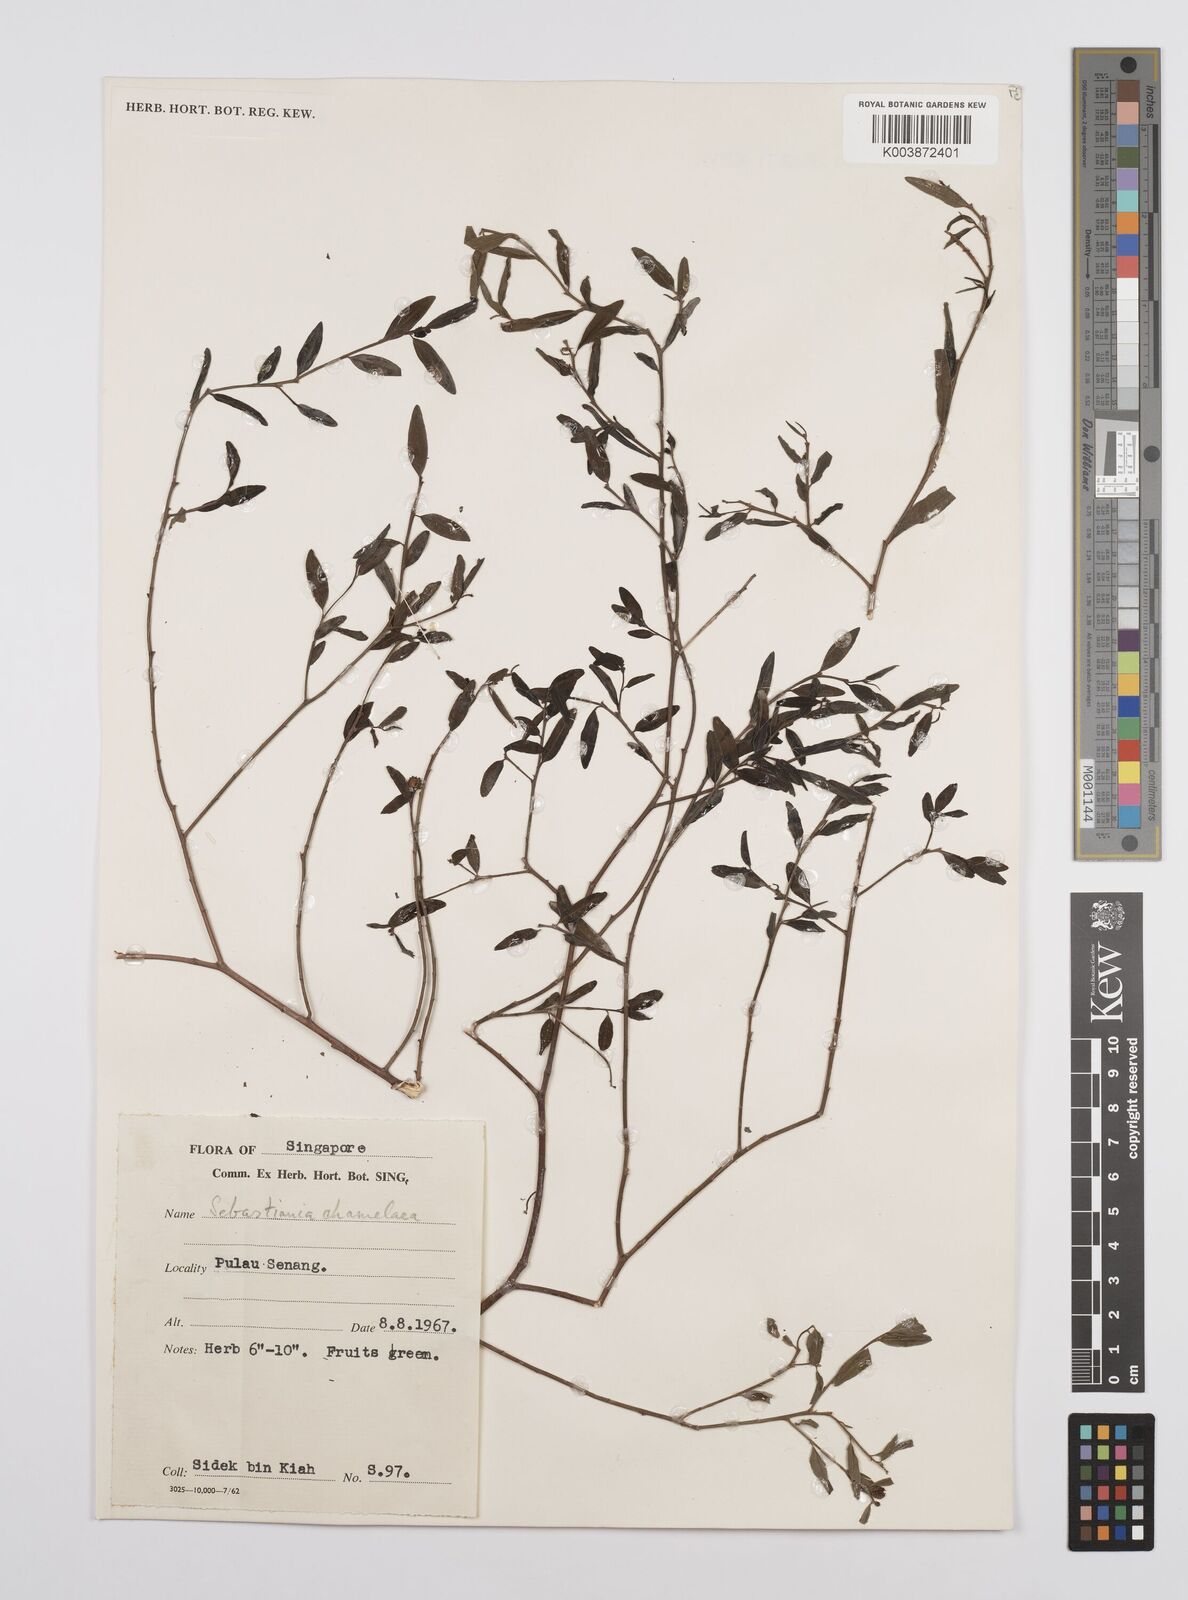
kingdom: Plantae
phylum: Tracheophyta
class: Magnoliopsida
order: Malpighiales
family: Euphorbiaceae
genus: Microstachys
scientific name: Microstachys chamaelea
